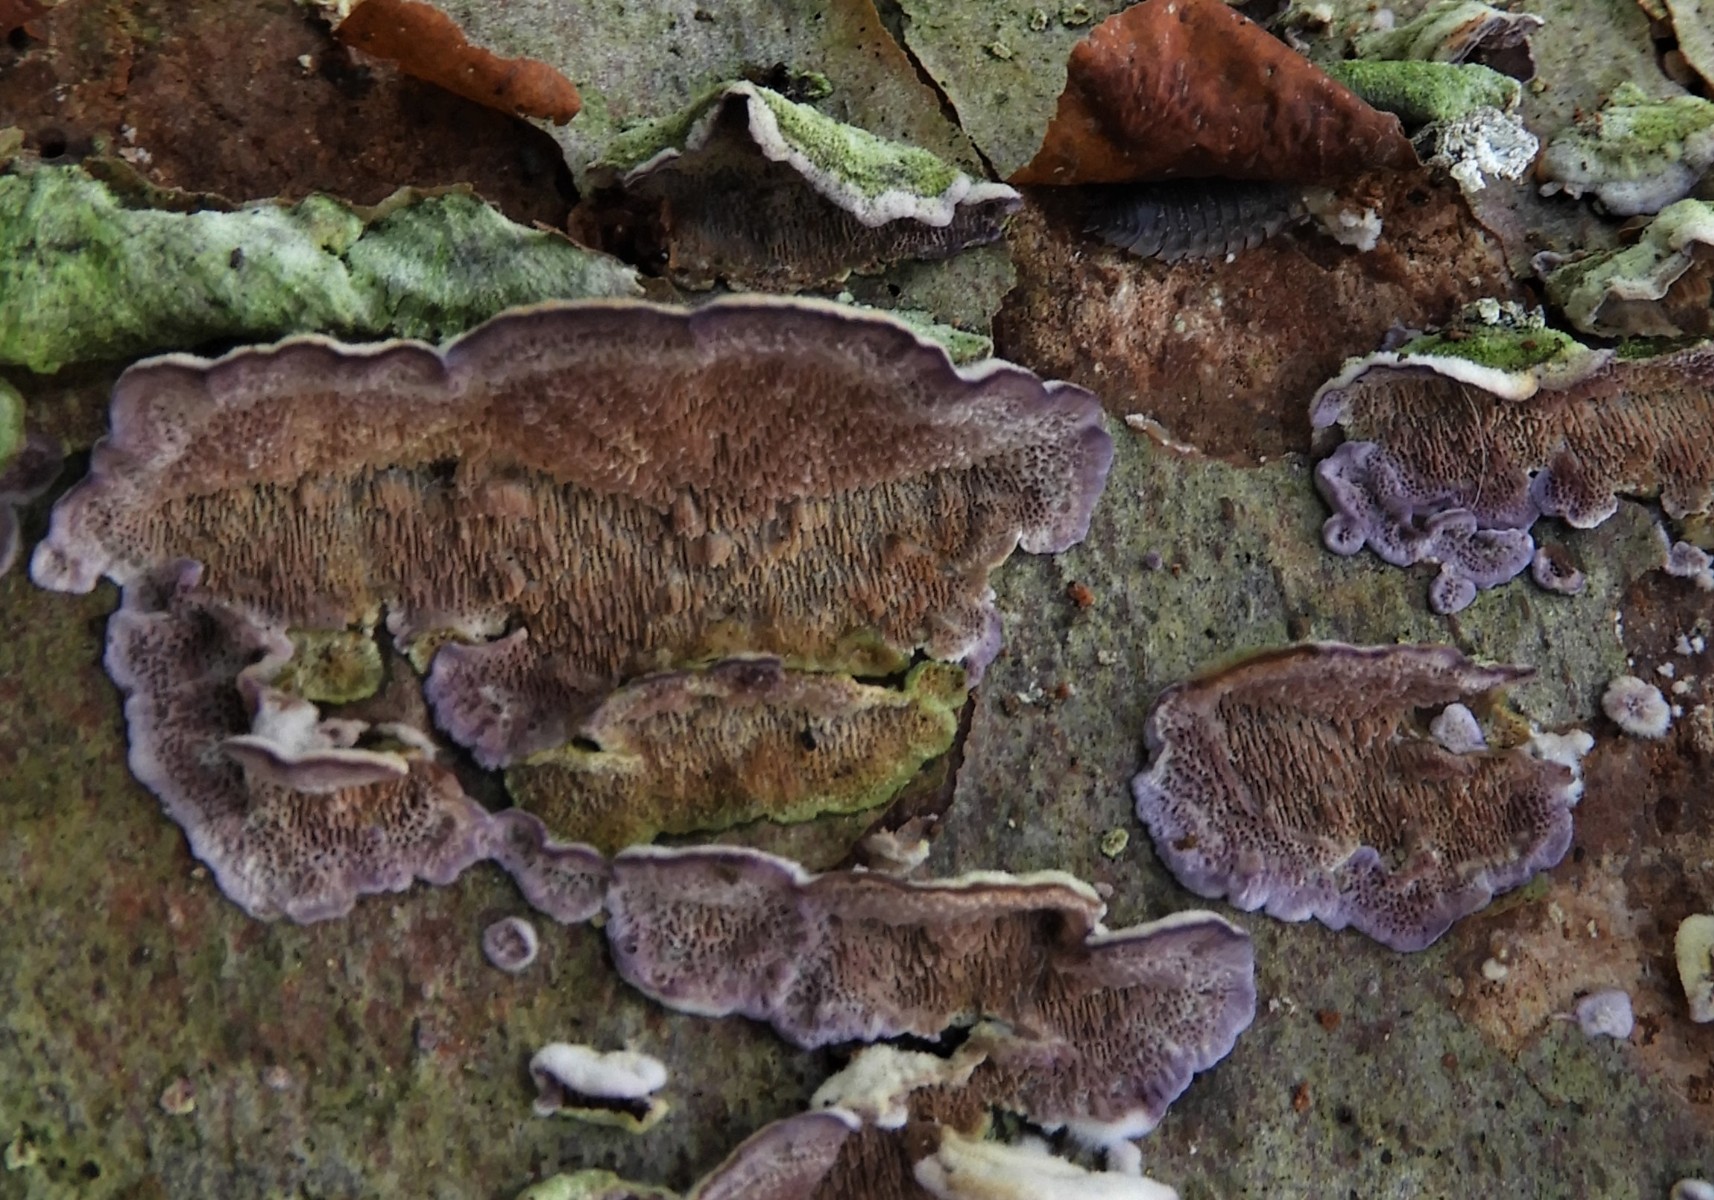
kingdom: Fungi
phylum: Basidiomycota
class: Agaricomycetes
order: Hymenochaetales
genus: Trichaptum
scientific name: Trichaptum abietinum
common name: almindelig violporesvamp
